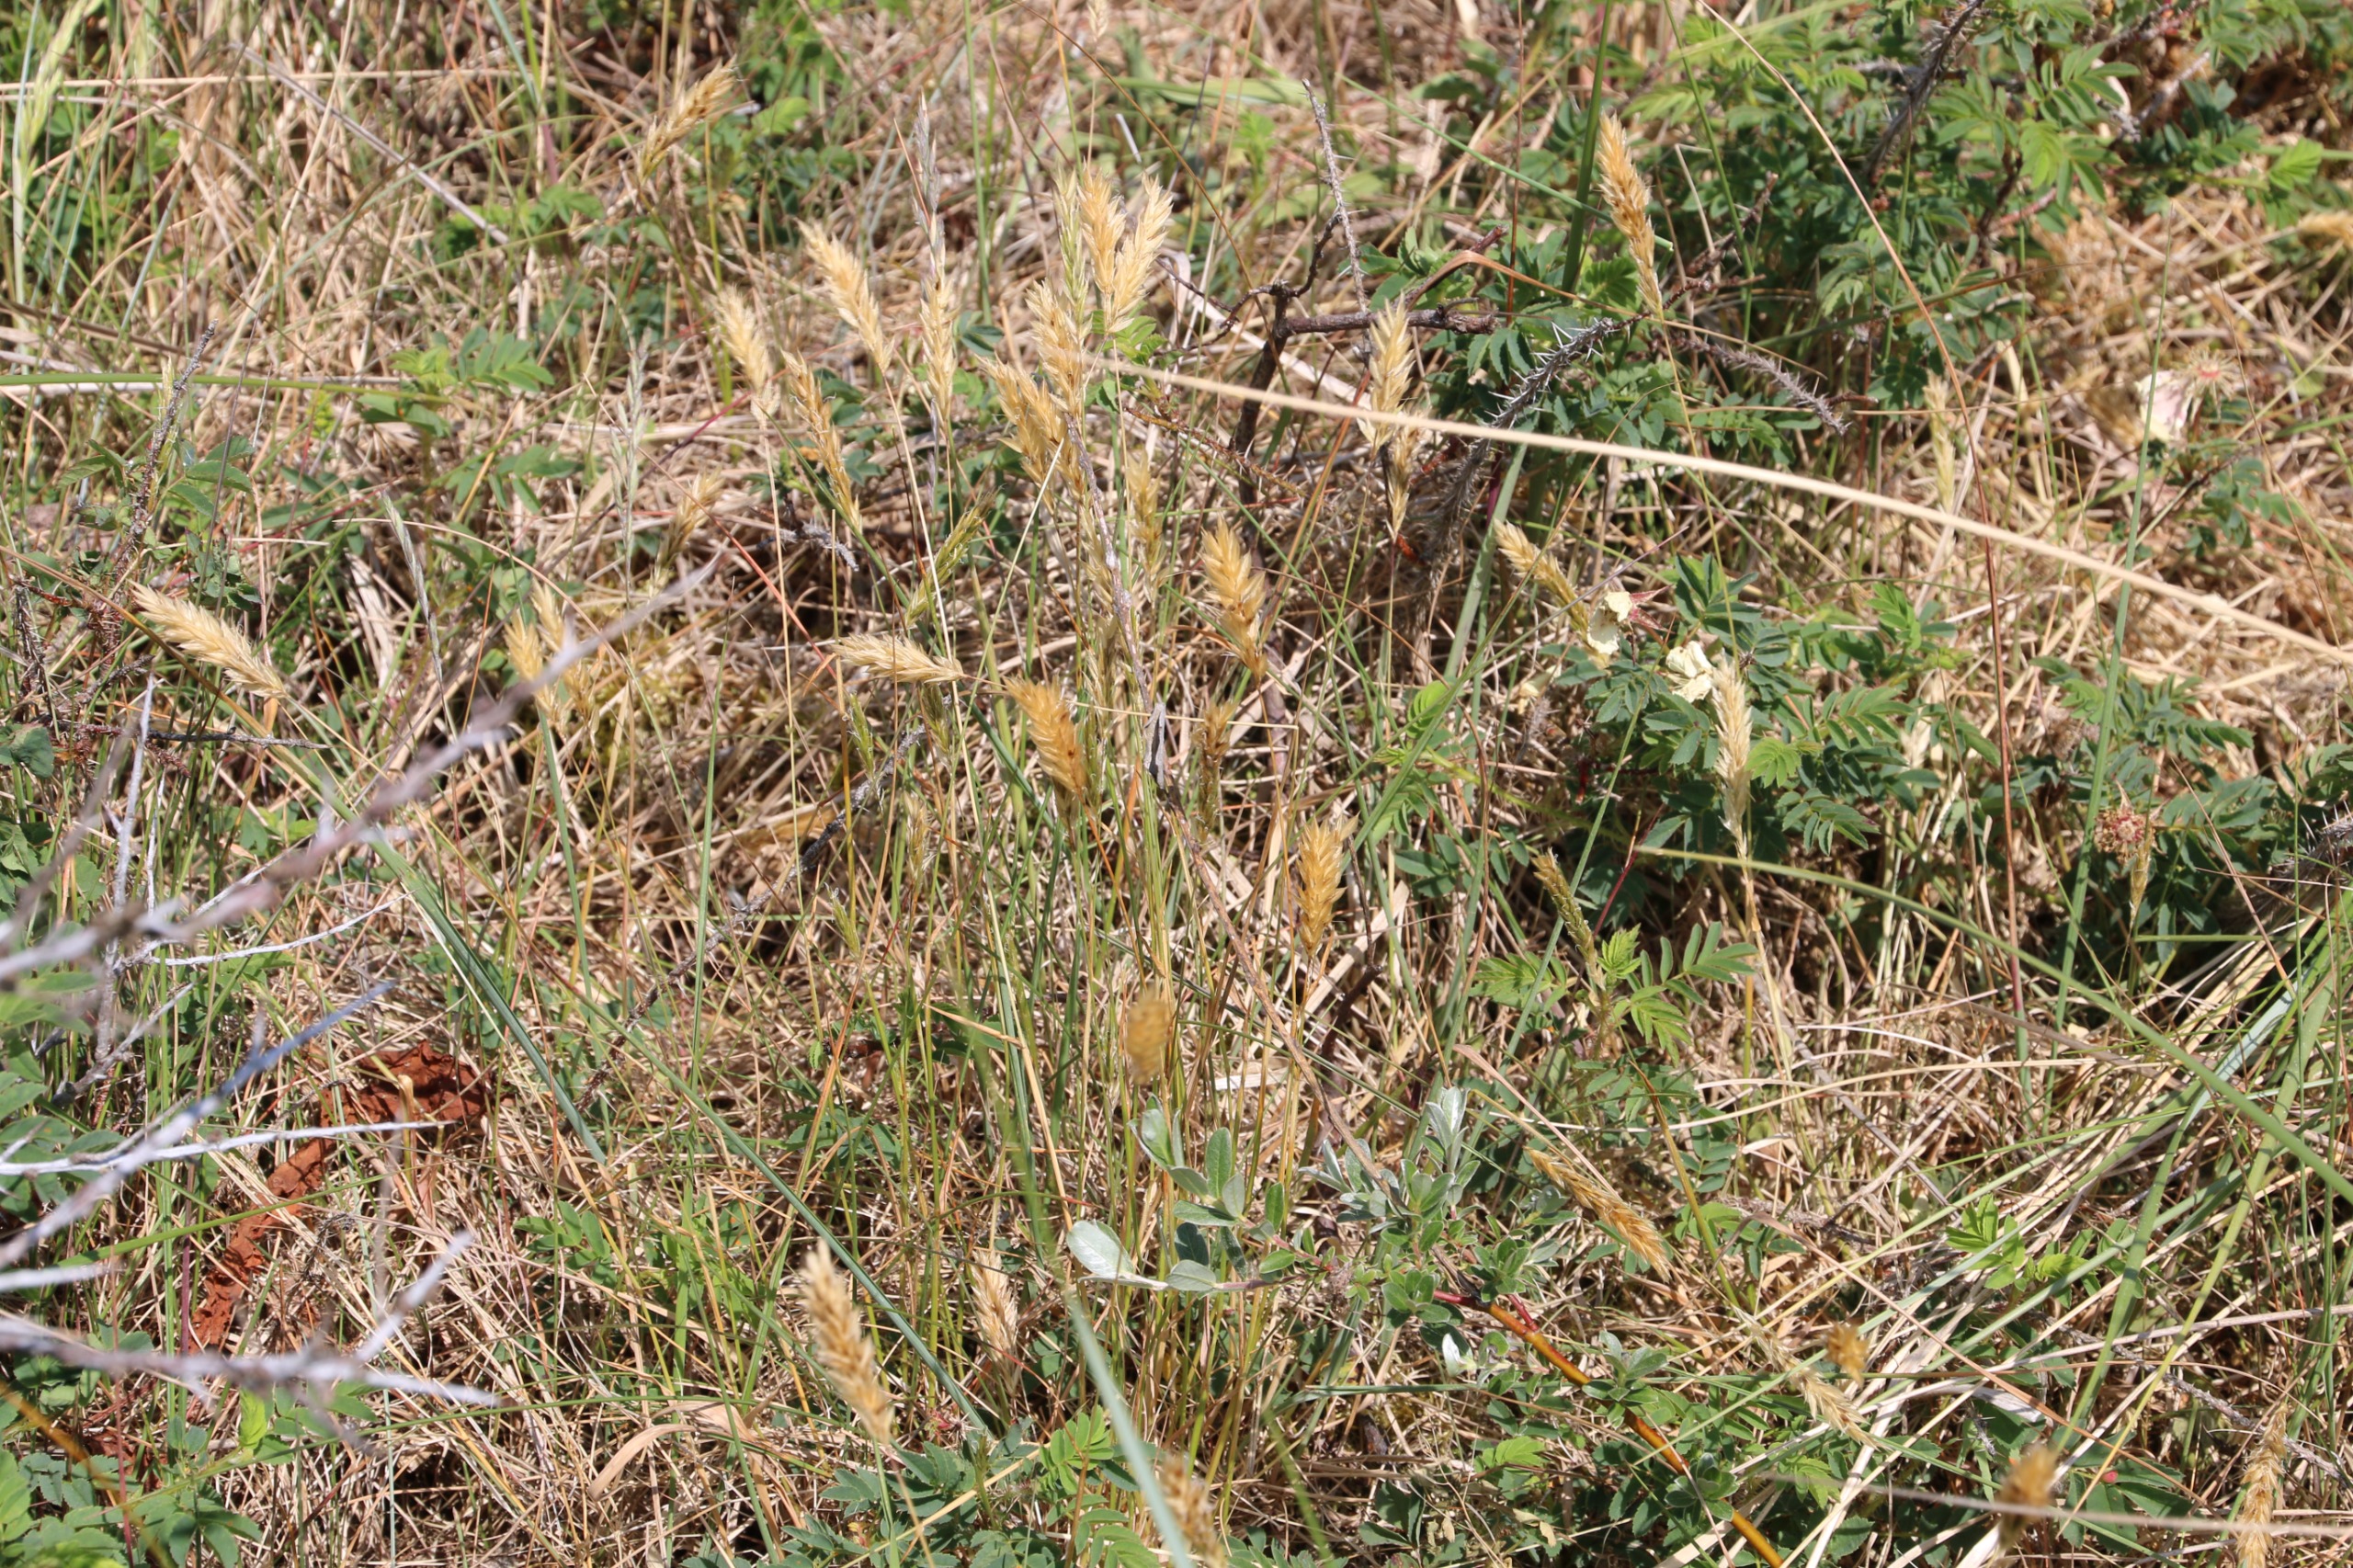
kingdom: Plantae
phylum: Tracheophyta
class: Liliopsida
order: Poales
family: Poaceae
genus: Anthoxanthum
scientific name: Anthoxanthum odoratum
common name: Vellugtende gulaks
